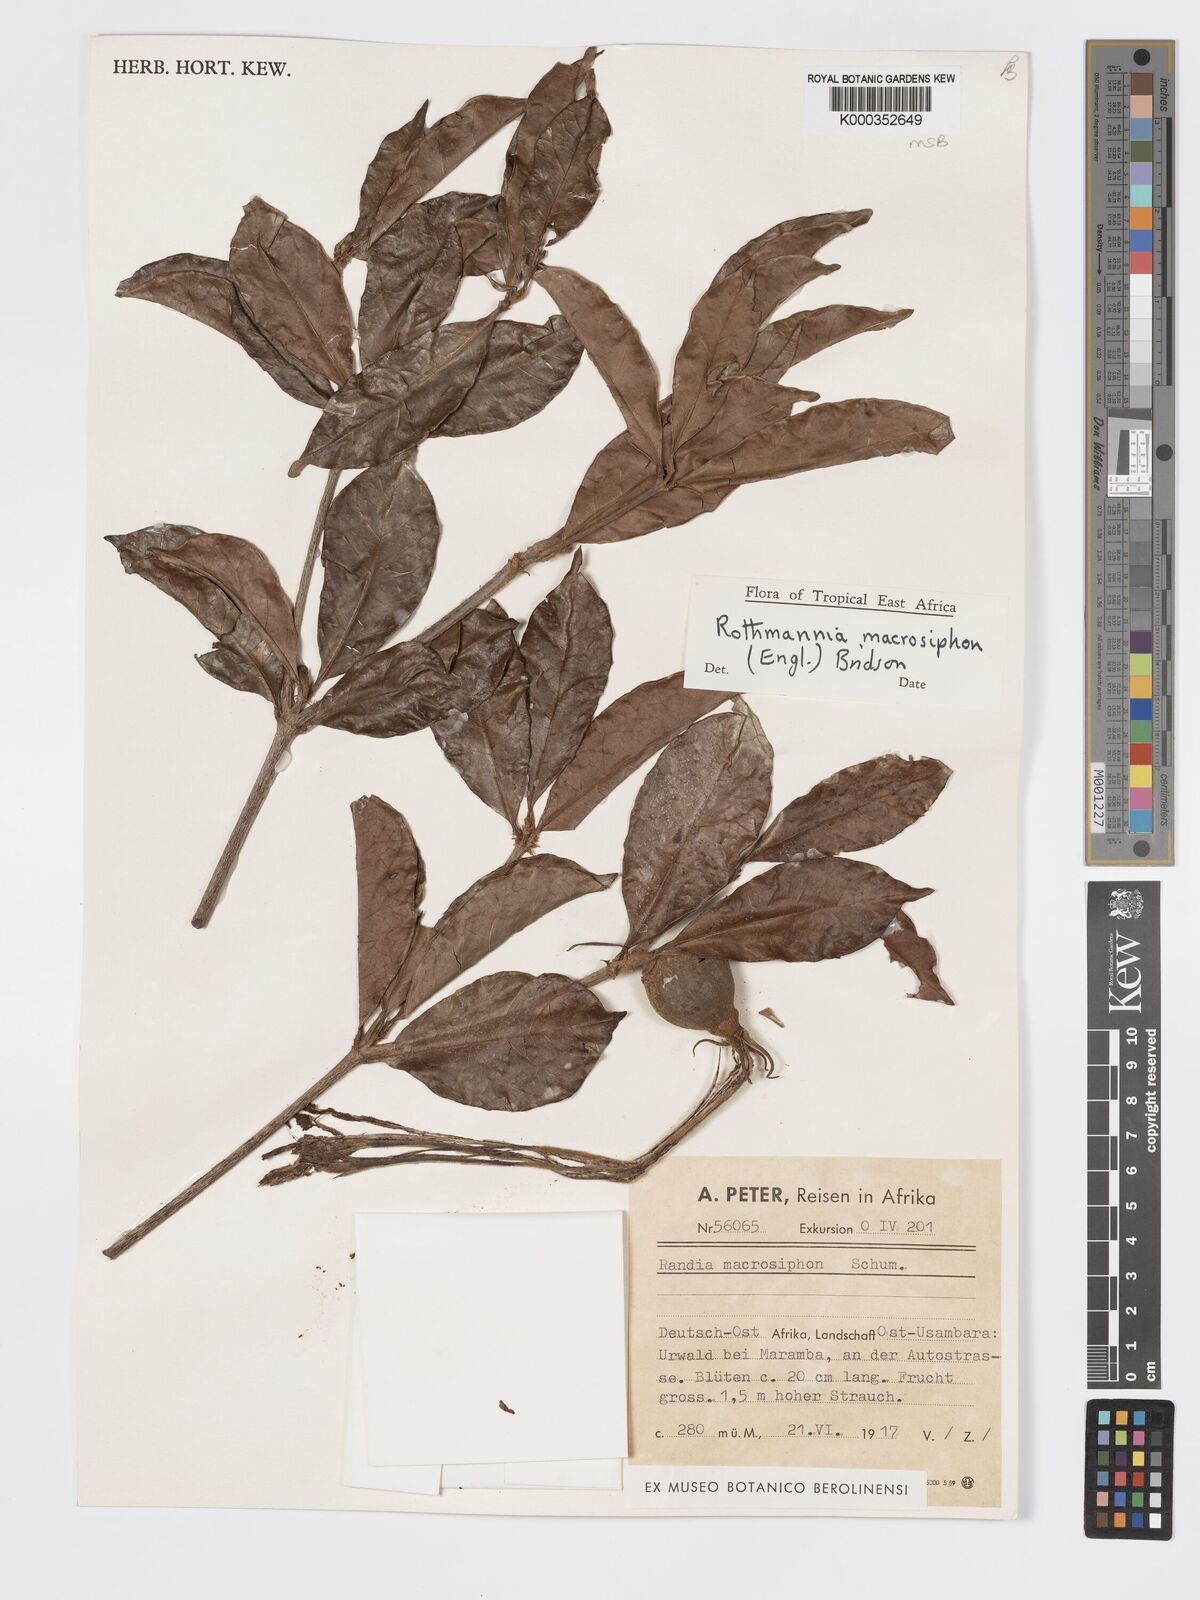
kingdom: Plantae
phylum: Tracheophyta
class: Magnoliopsida
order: Gentianales
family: Rubiaceae
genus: Rothmannia
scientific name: Rothmannia macrosiphon
